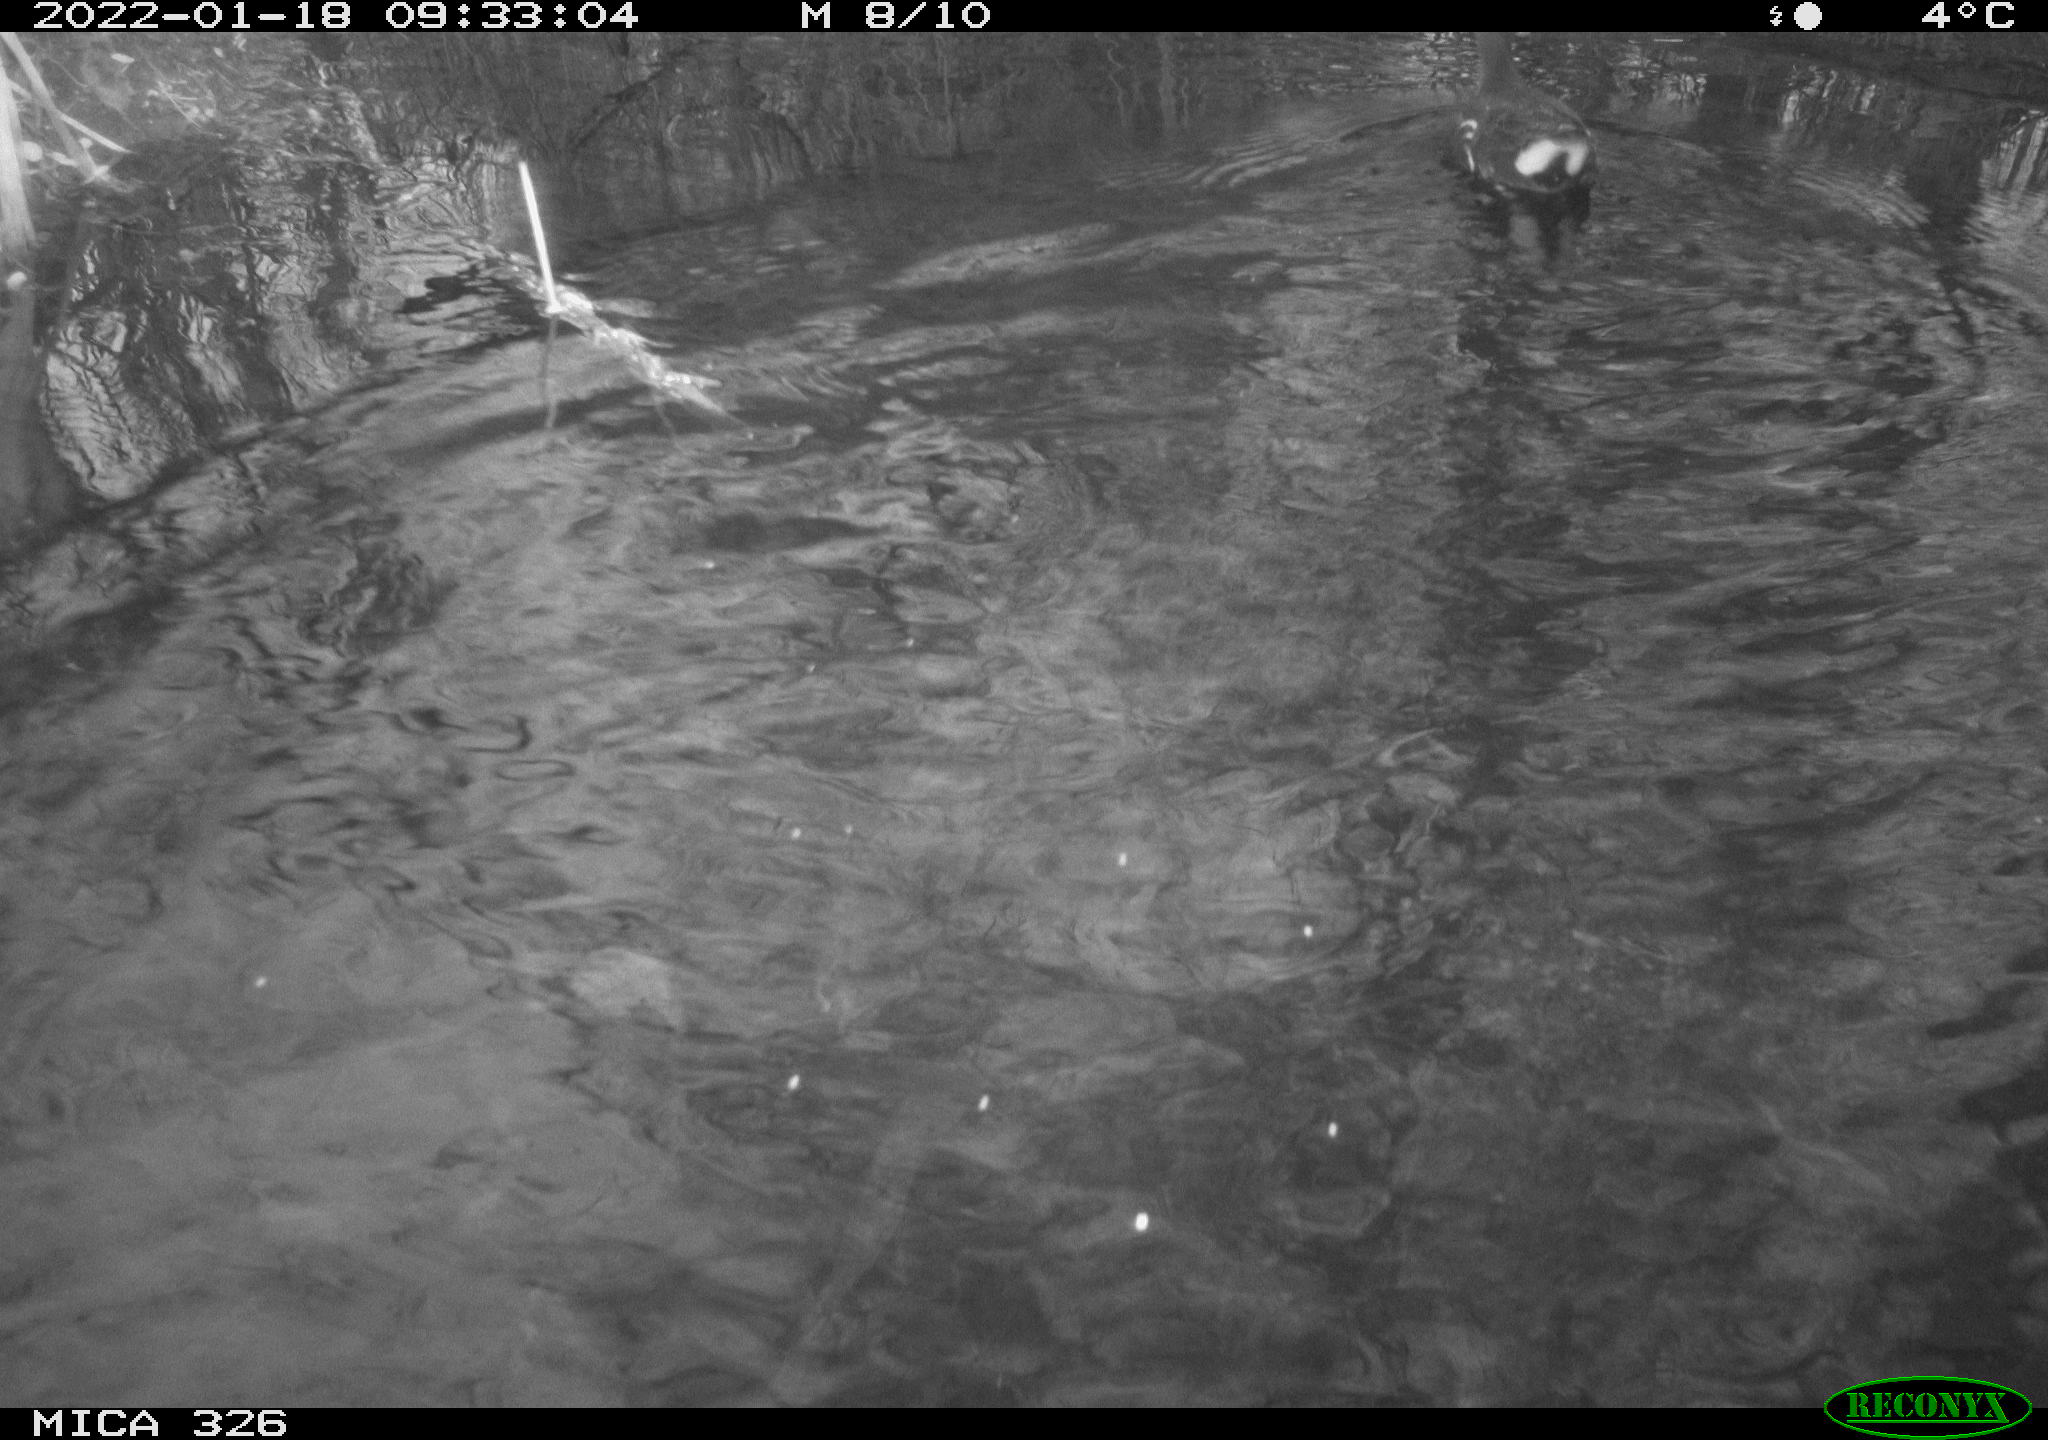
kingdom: Animalia
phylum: Chordata
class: Aves
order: Gruiformes
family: Rallidae
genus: Gallinula
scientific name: Gallinula chloropus
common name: Common moorhen
